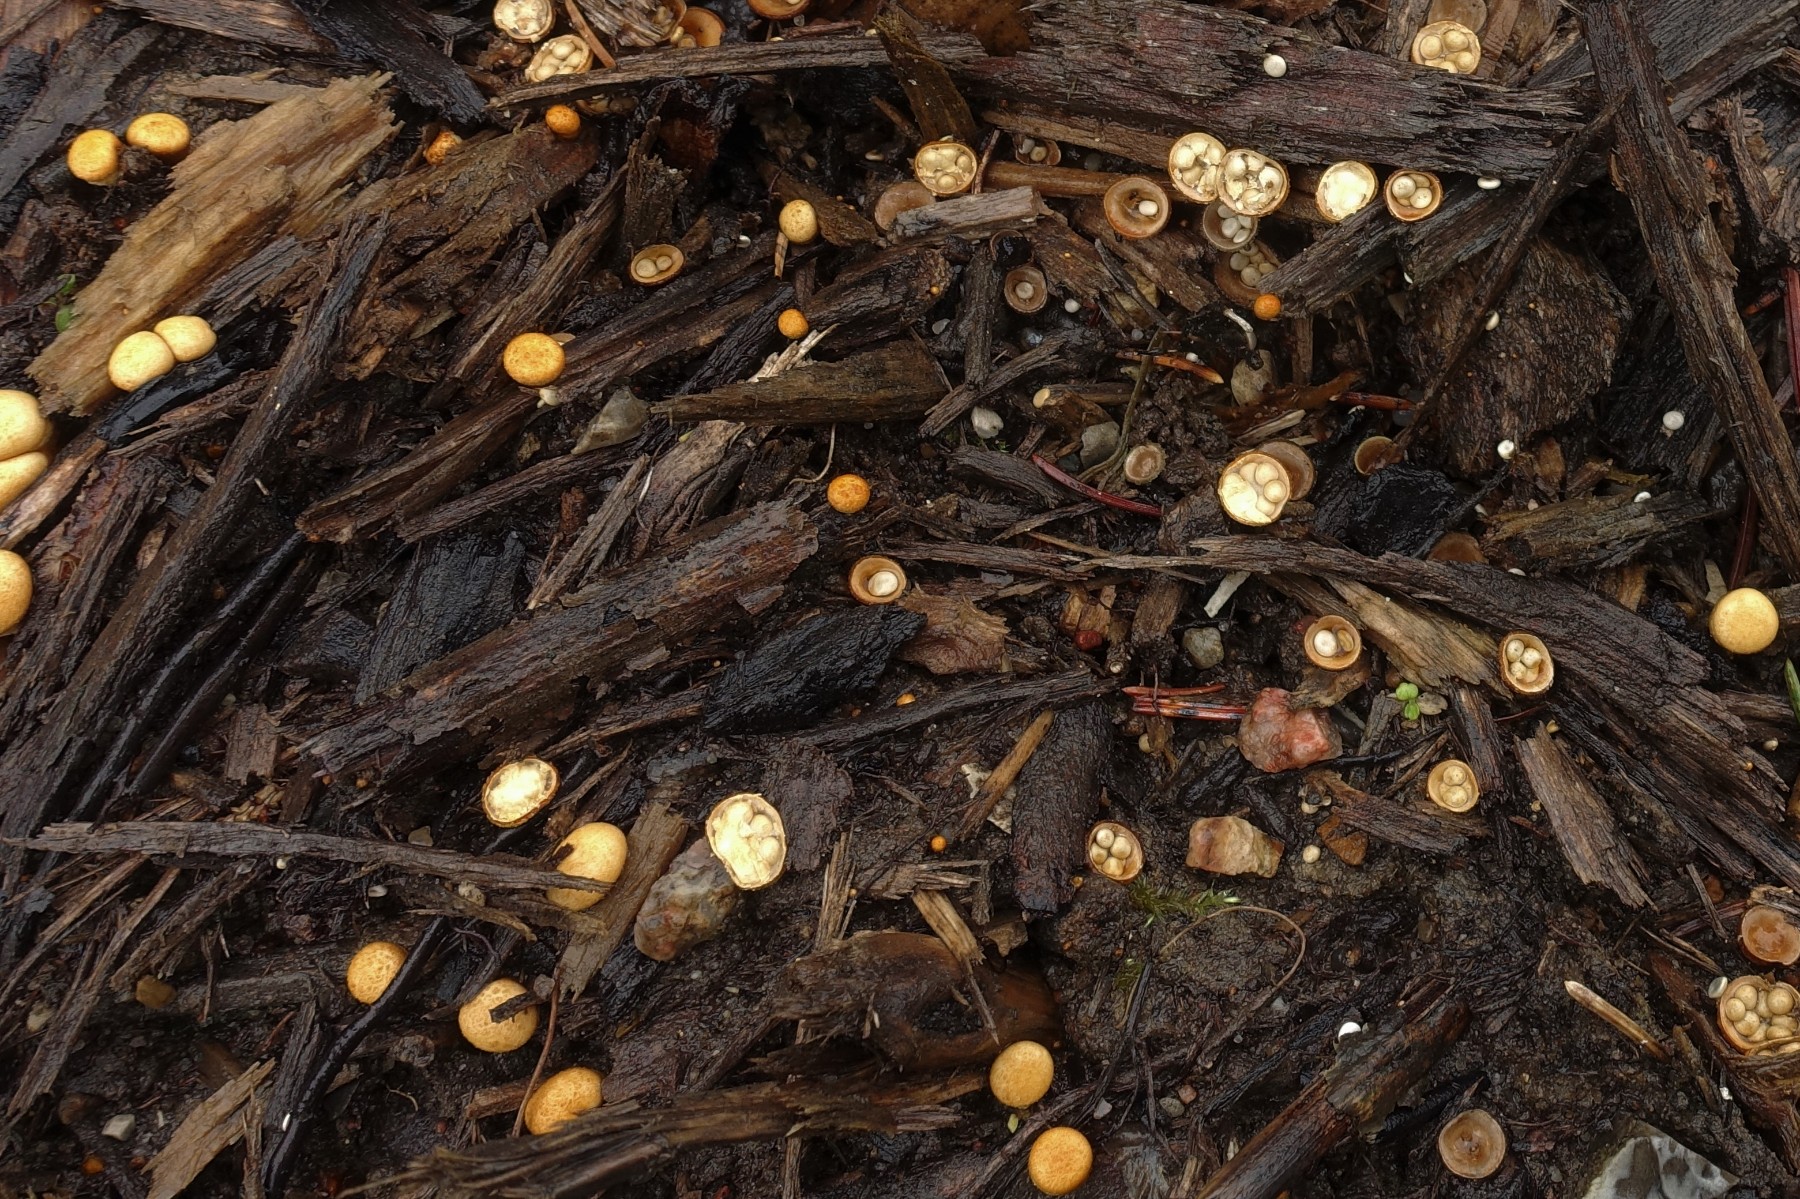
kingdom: Fungi
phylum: Basidiomycota
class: Agaricomycetes
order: Agaricales
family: Nidulariaceae
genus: Crucibulum
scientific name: Crucibulum crucibuliforme
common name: krukkesvamp
